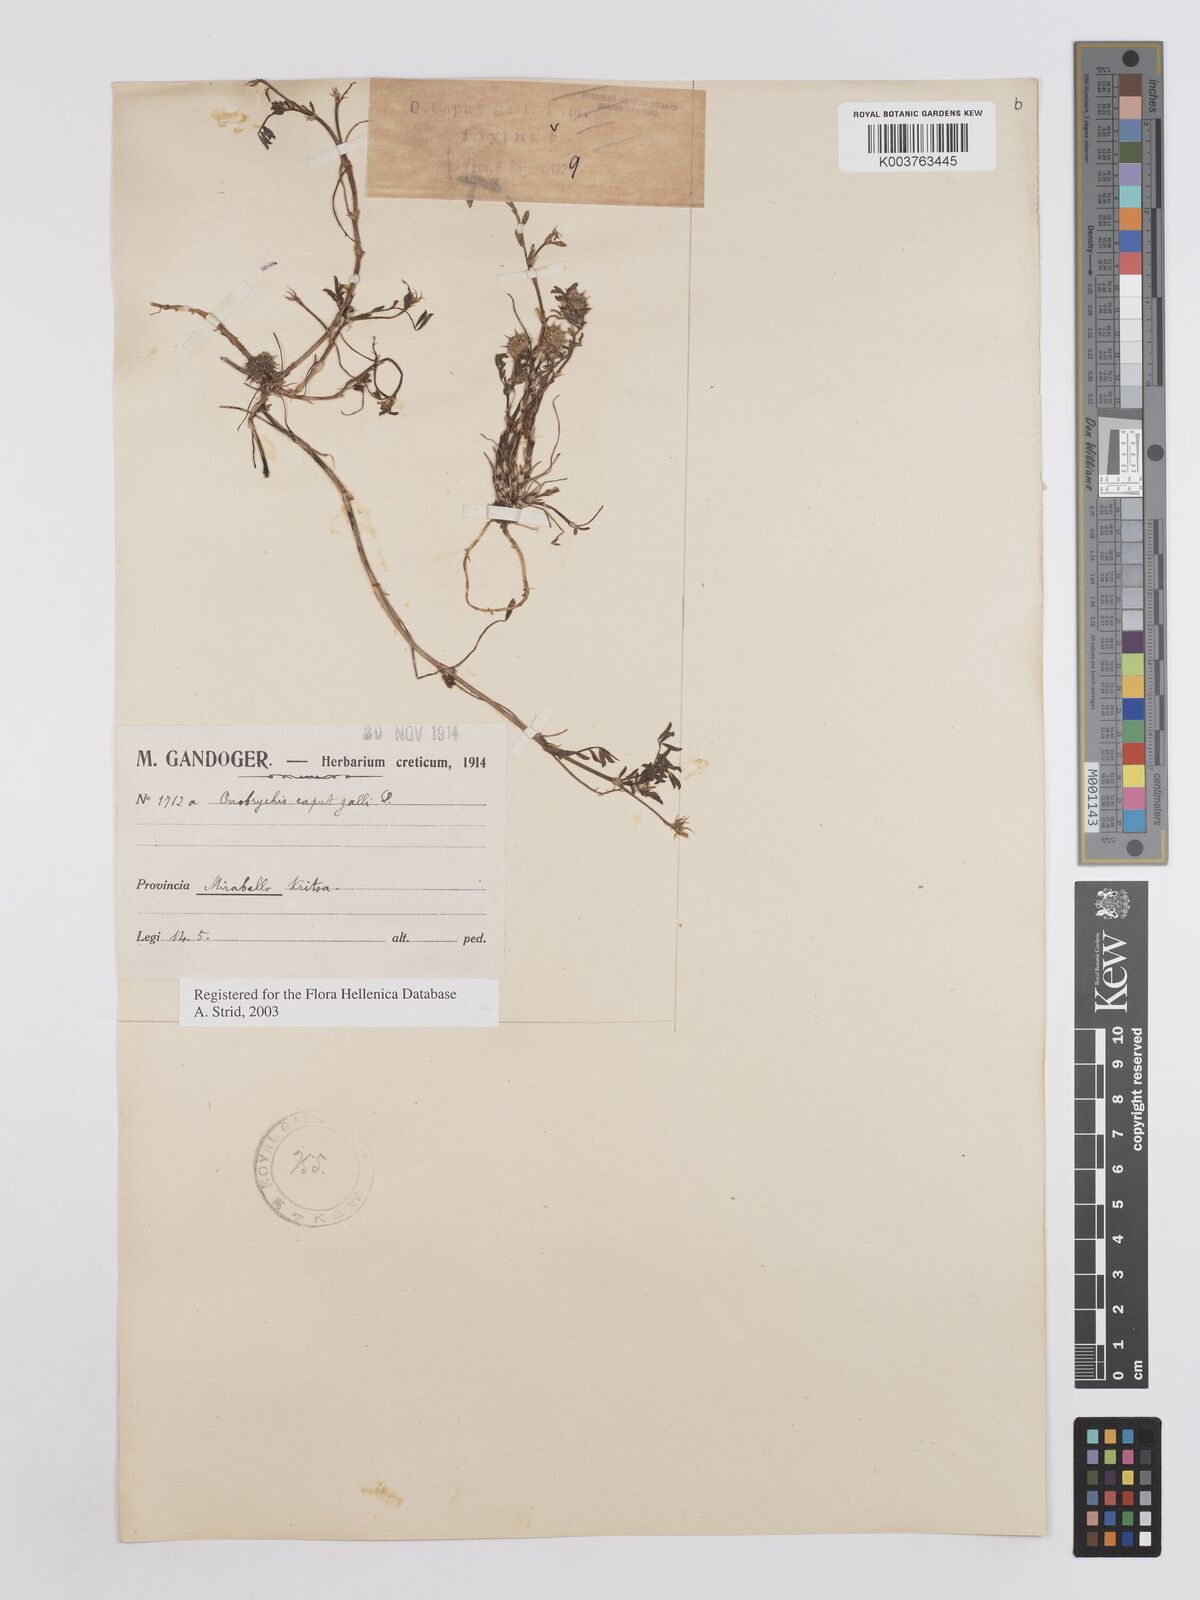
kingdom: Plantae
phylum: Tracheophyta
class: Magnoliopsida
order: Fabales
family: Fabaceae
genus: Onobrychis
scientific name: Onobrychis caput-galli
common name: Cockscomb sainfoin
